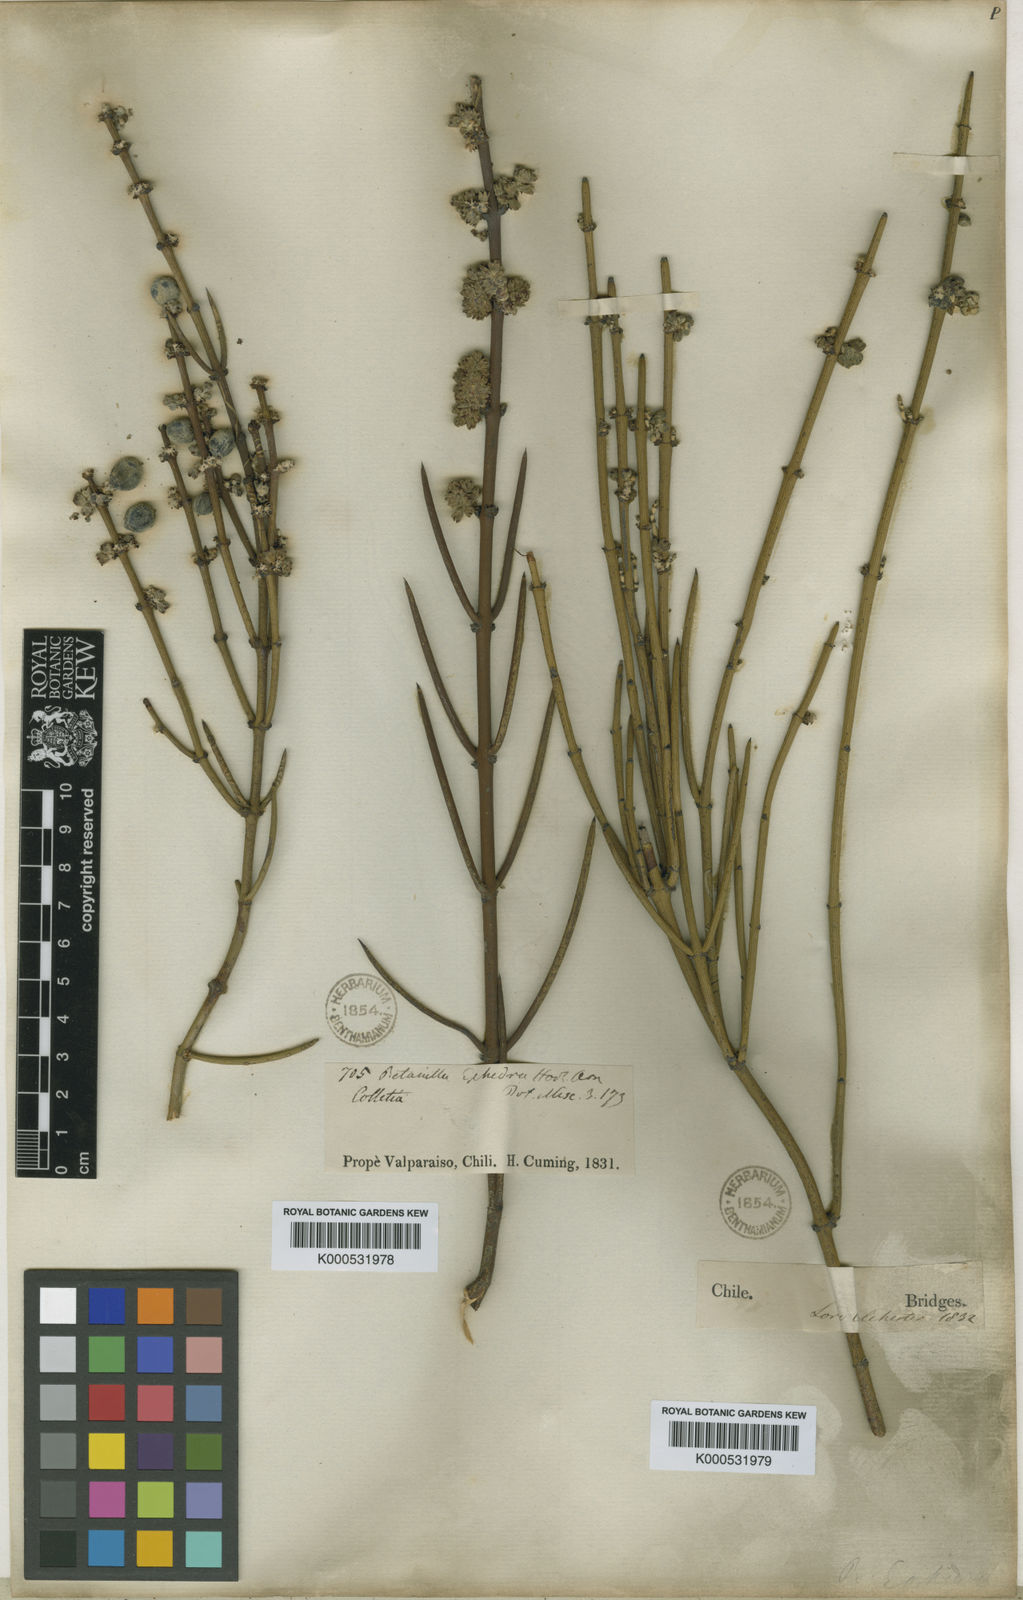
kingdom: Plantae
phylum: Tracheophyta
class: Magnoliopsida
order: Rosales
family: Rhamnaceae
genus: Retanilla
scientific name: Retanilla ephedra
